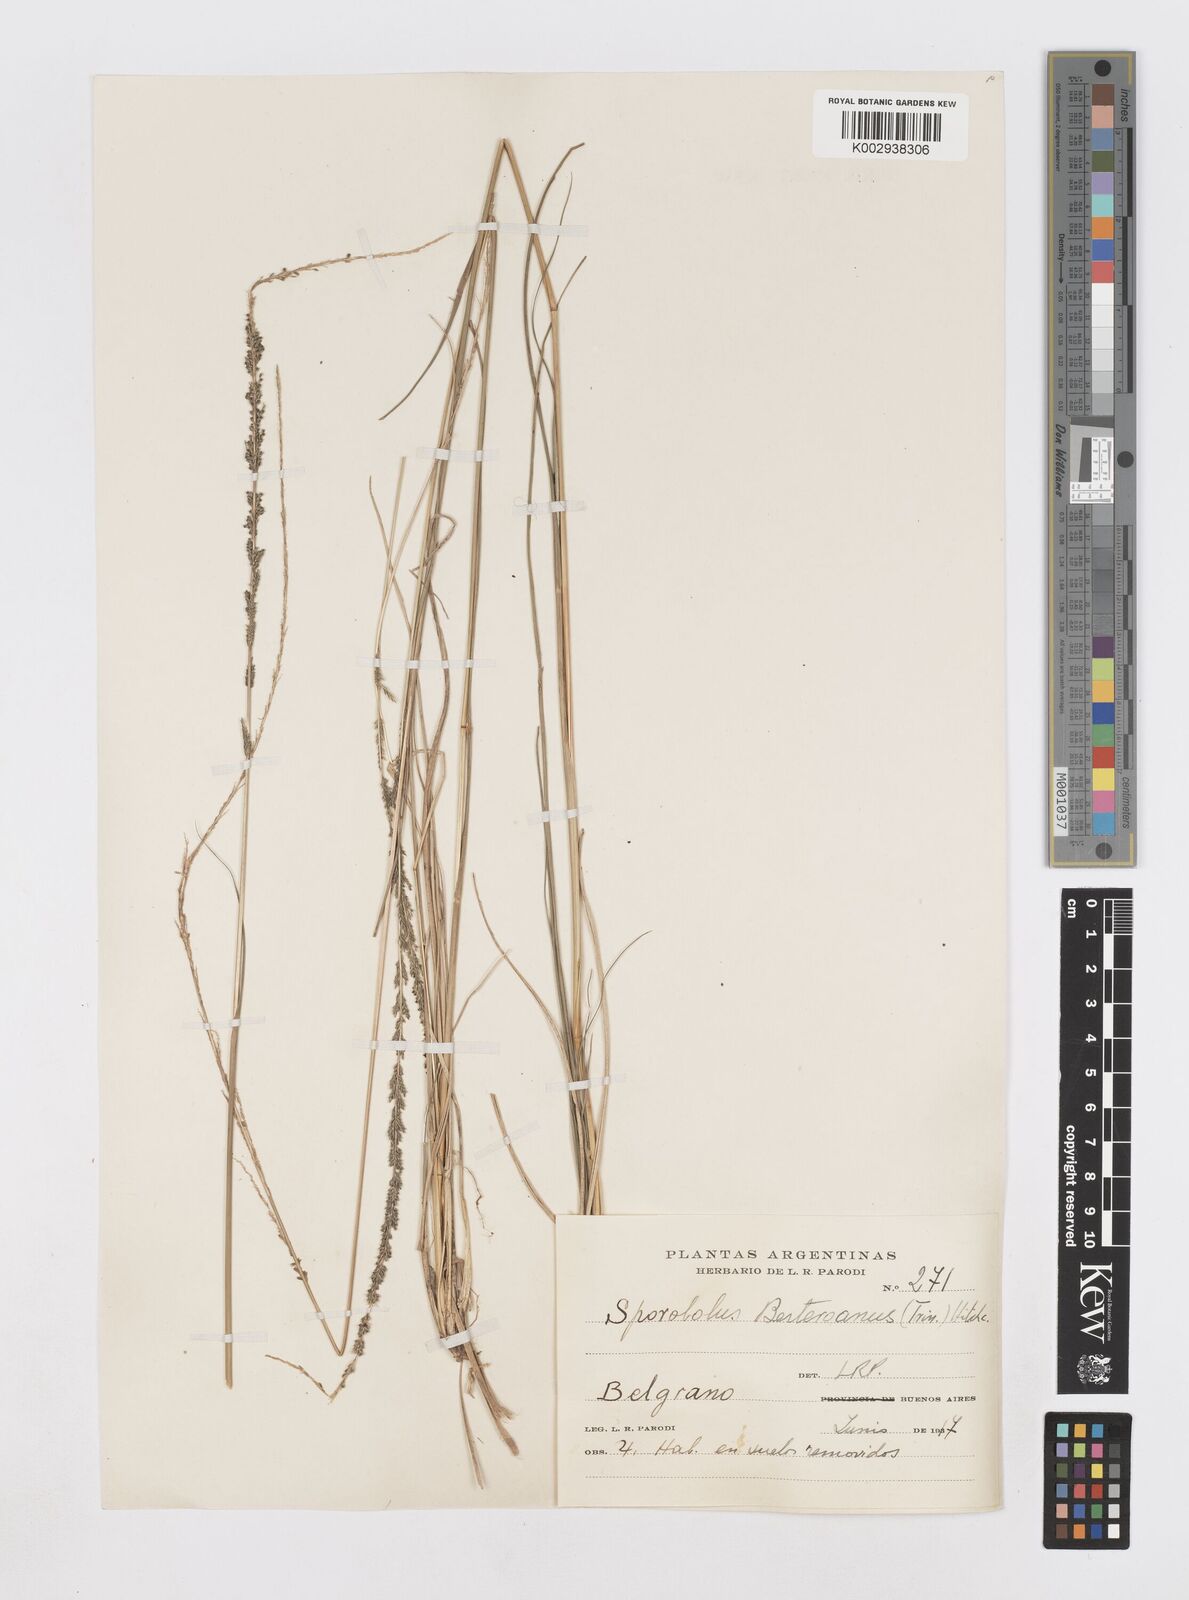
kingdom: Plantae
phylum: Tracheophyta
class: Liliopsida
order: Poales
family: Poaceae
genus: Sporobolus
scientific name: Sporobolus indicus
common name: Smut grass
